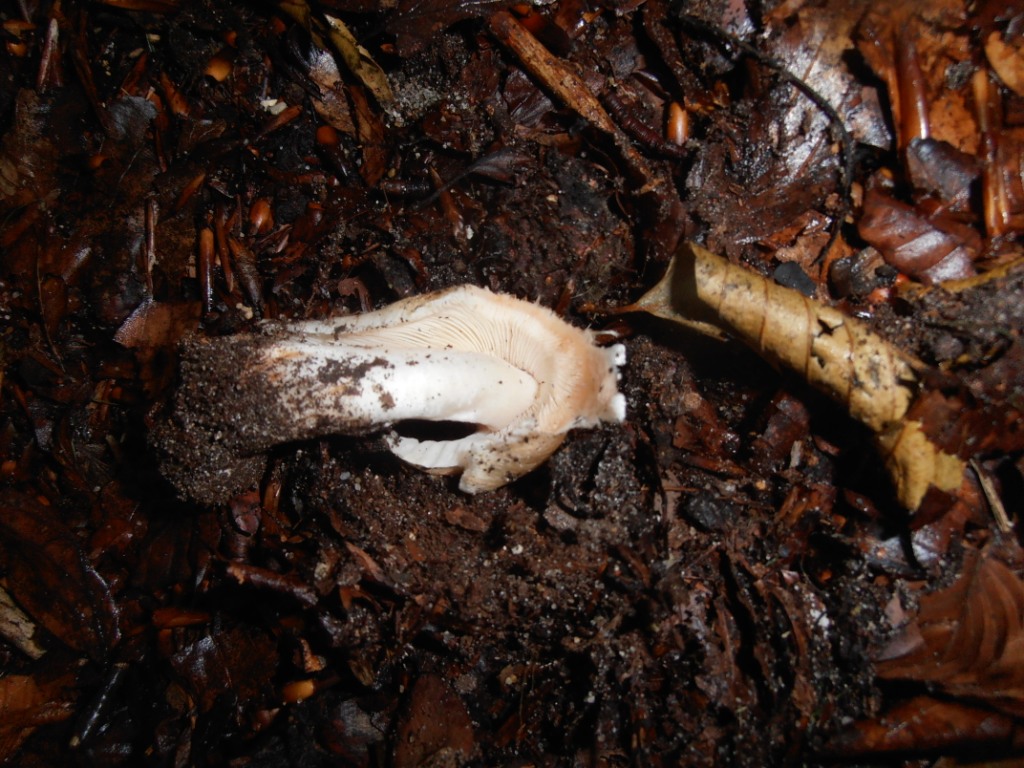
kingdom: Fungi
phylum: Basidiomycota
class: Agaricomycetes
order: Agaricales
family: Inocybaceae
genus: Inosperma
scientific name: Inosperma erubescens
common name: giftig trævlhat
